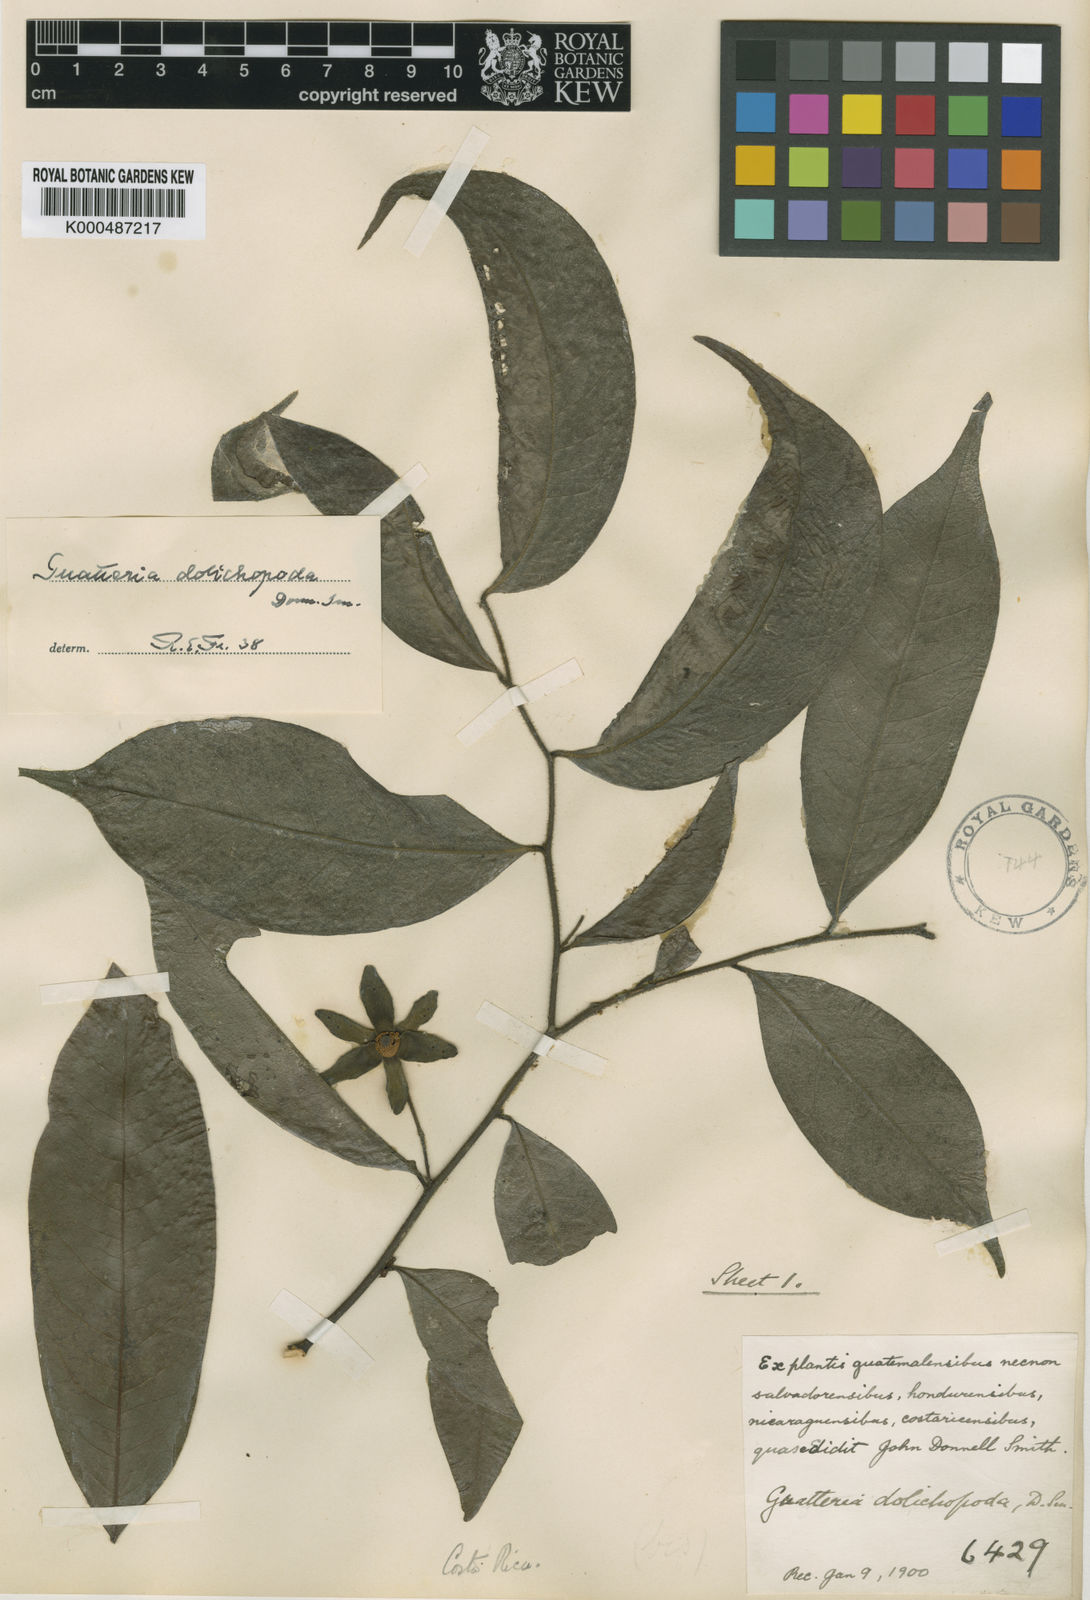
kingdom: Plantae
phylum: Tracheophyta
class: Magnoliopsida
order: Magnoliales
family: Annonaceae
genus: Guatteria
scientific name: Guatteria dolichopoda
